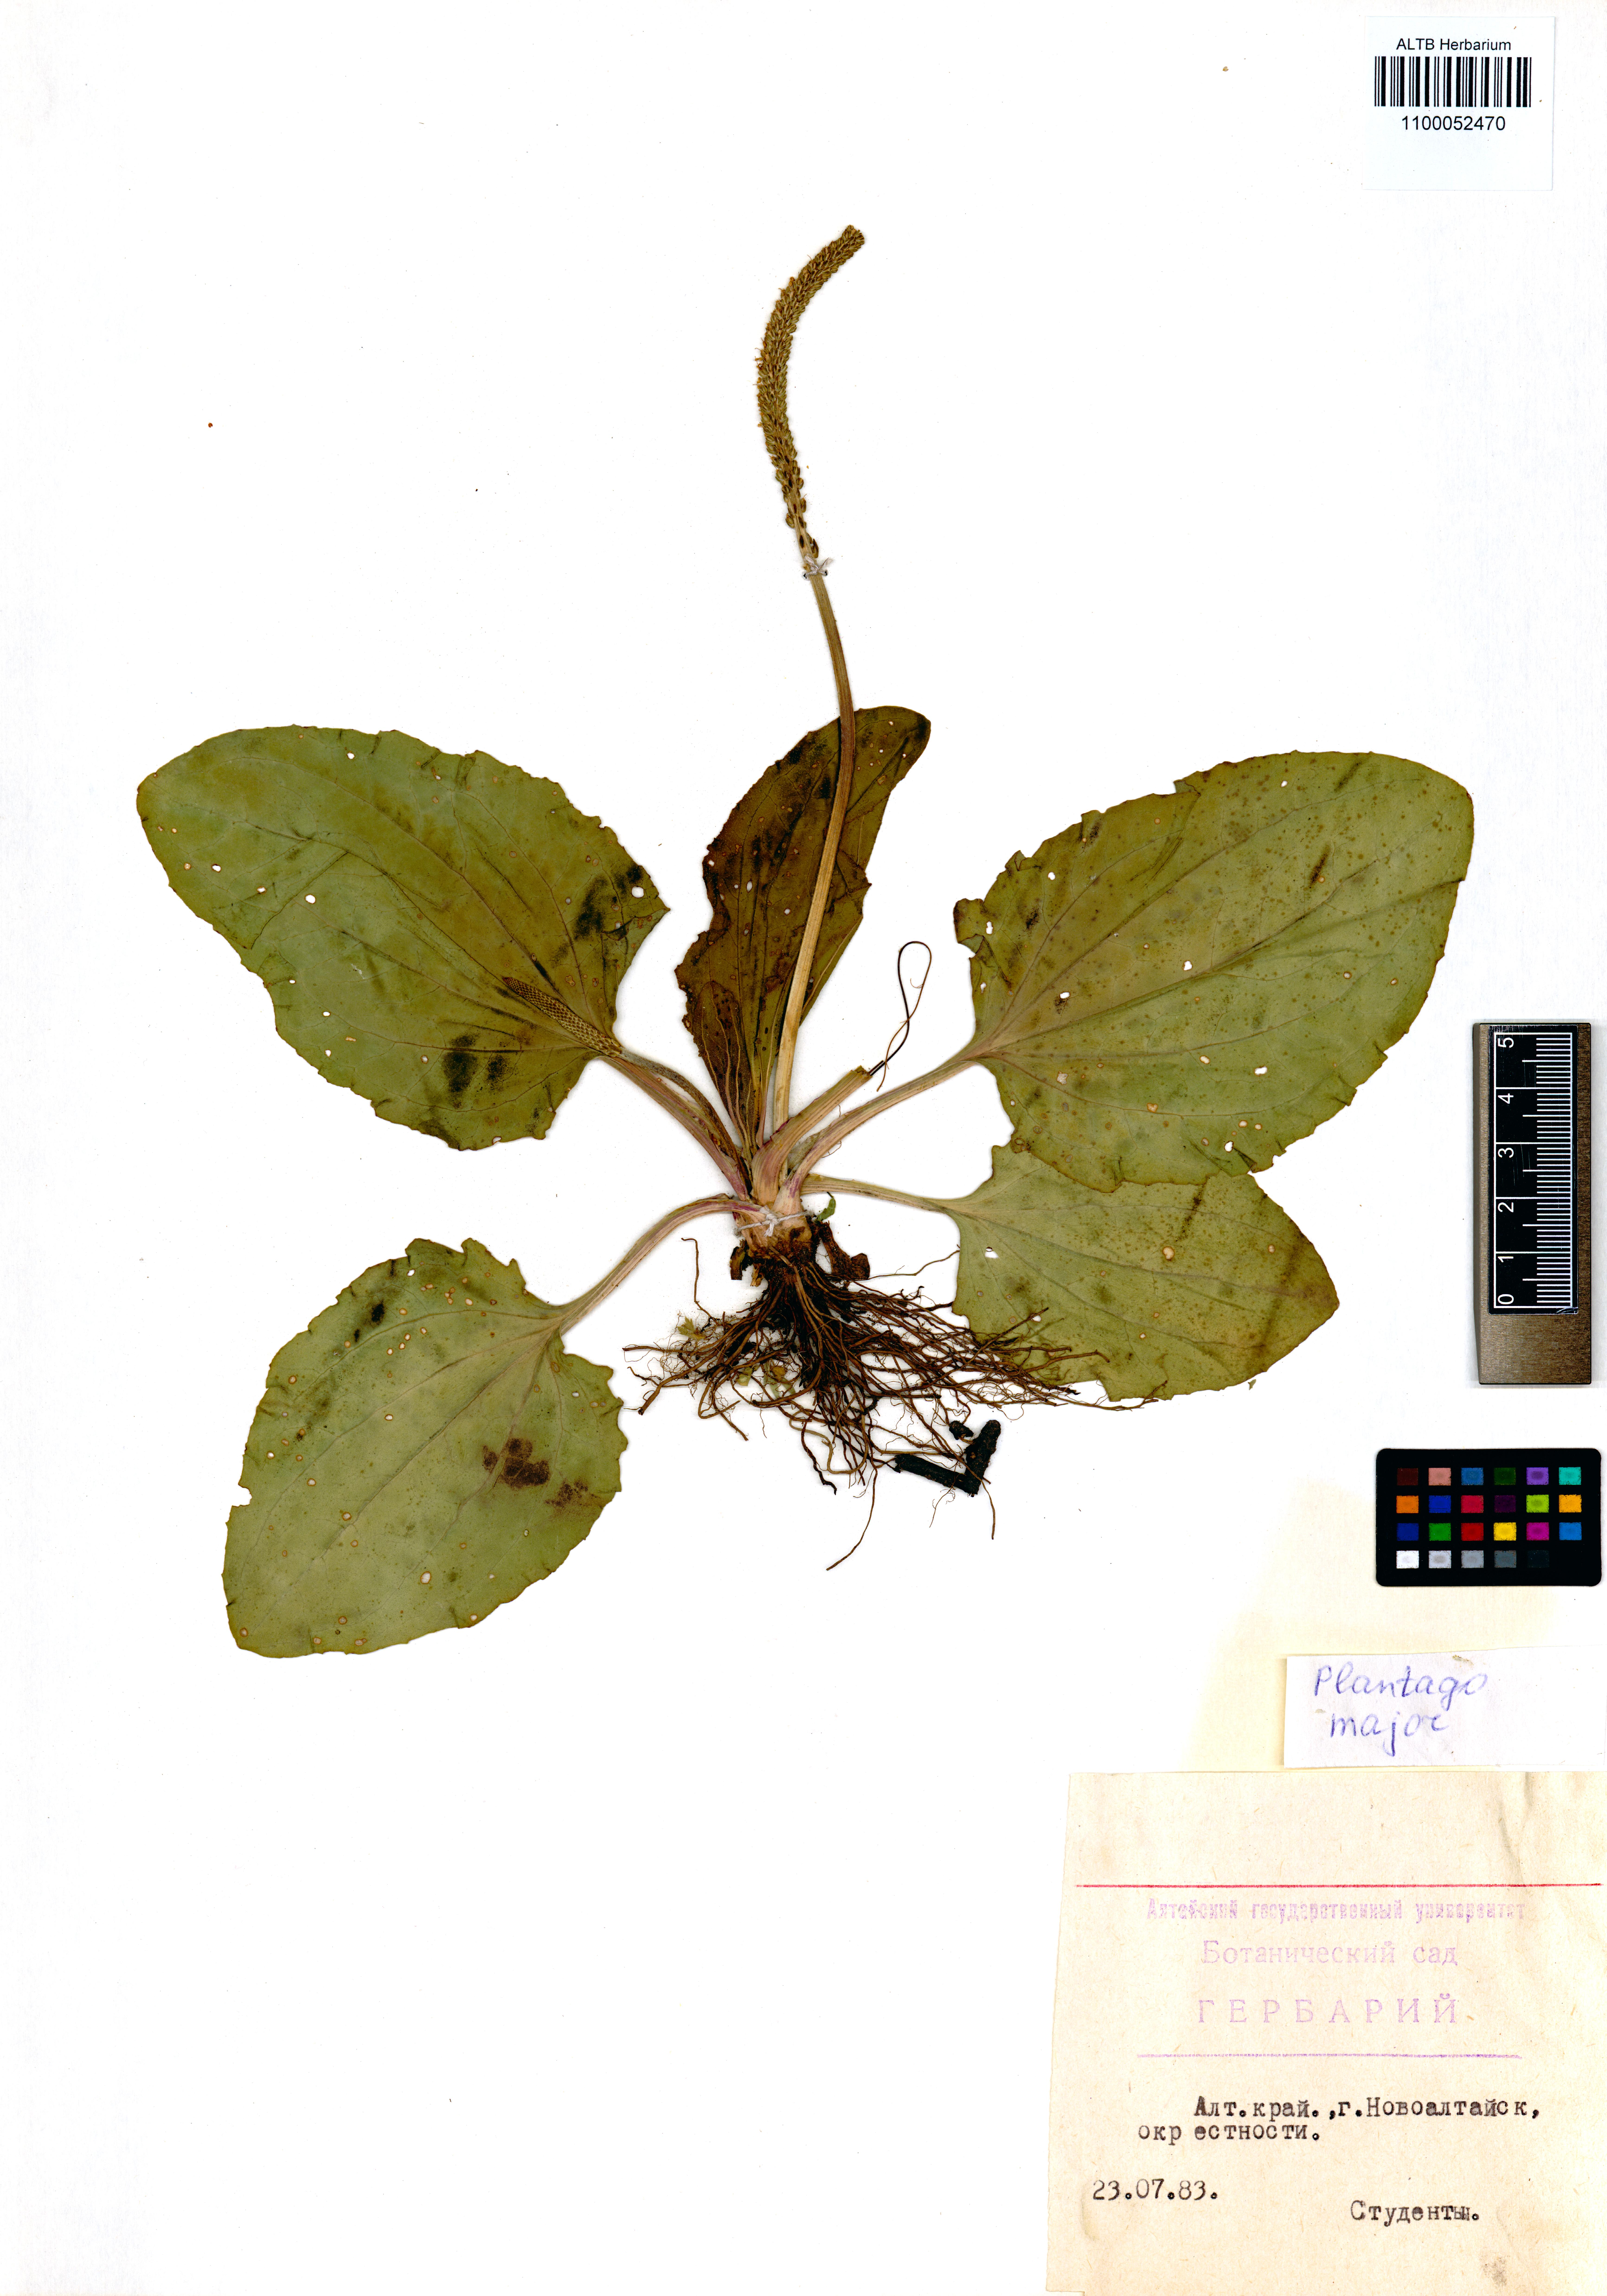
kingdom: Plantae
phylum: Tracheophyta
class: Magnoliopsida
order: Lamiales
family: Plantaginaceae
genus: Plantago
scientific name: Plantago major
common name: Common plantain
